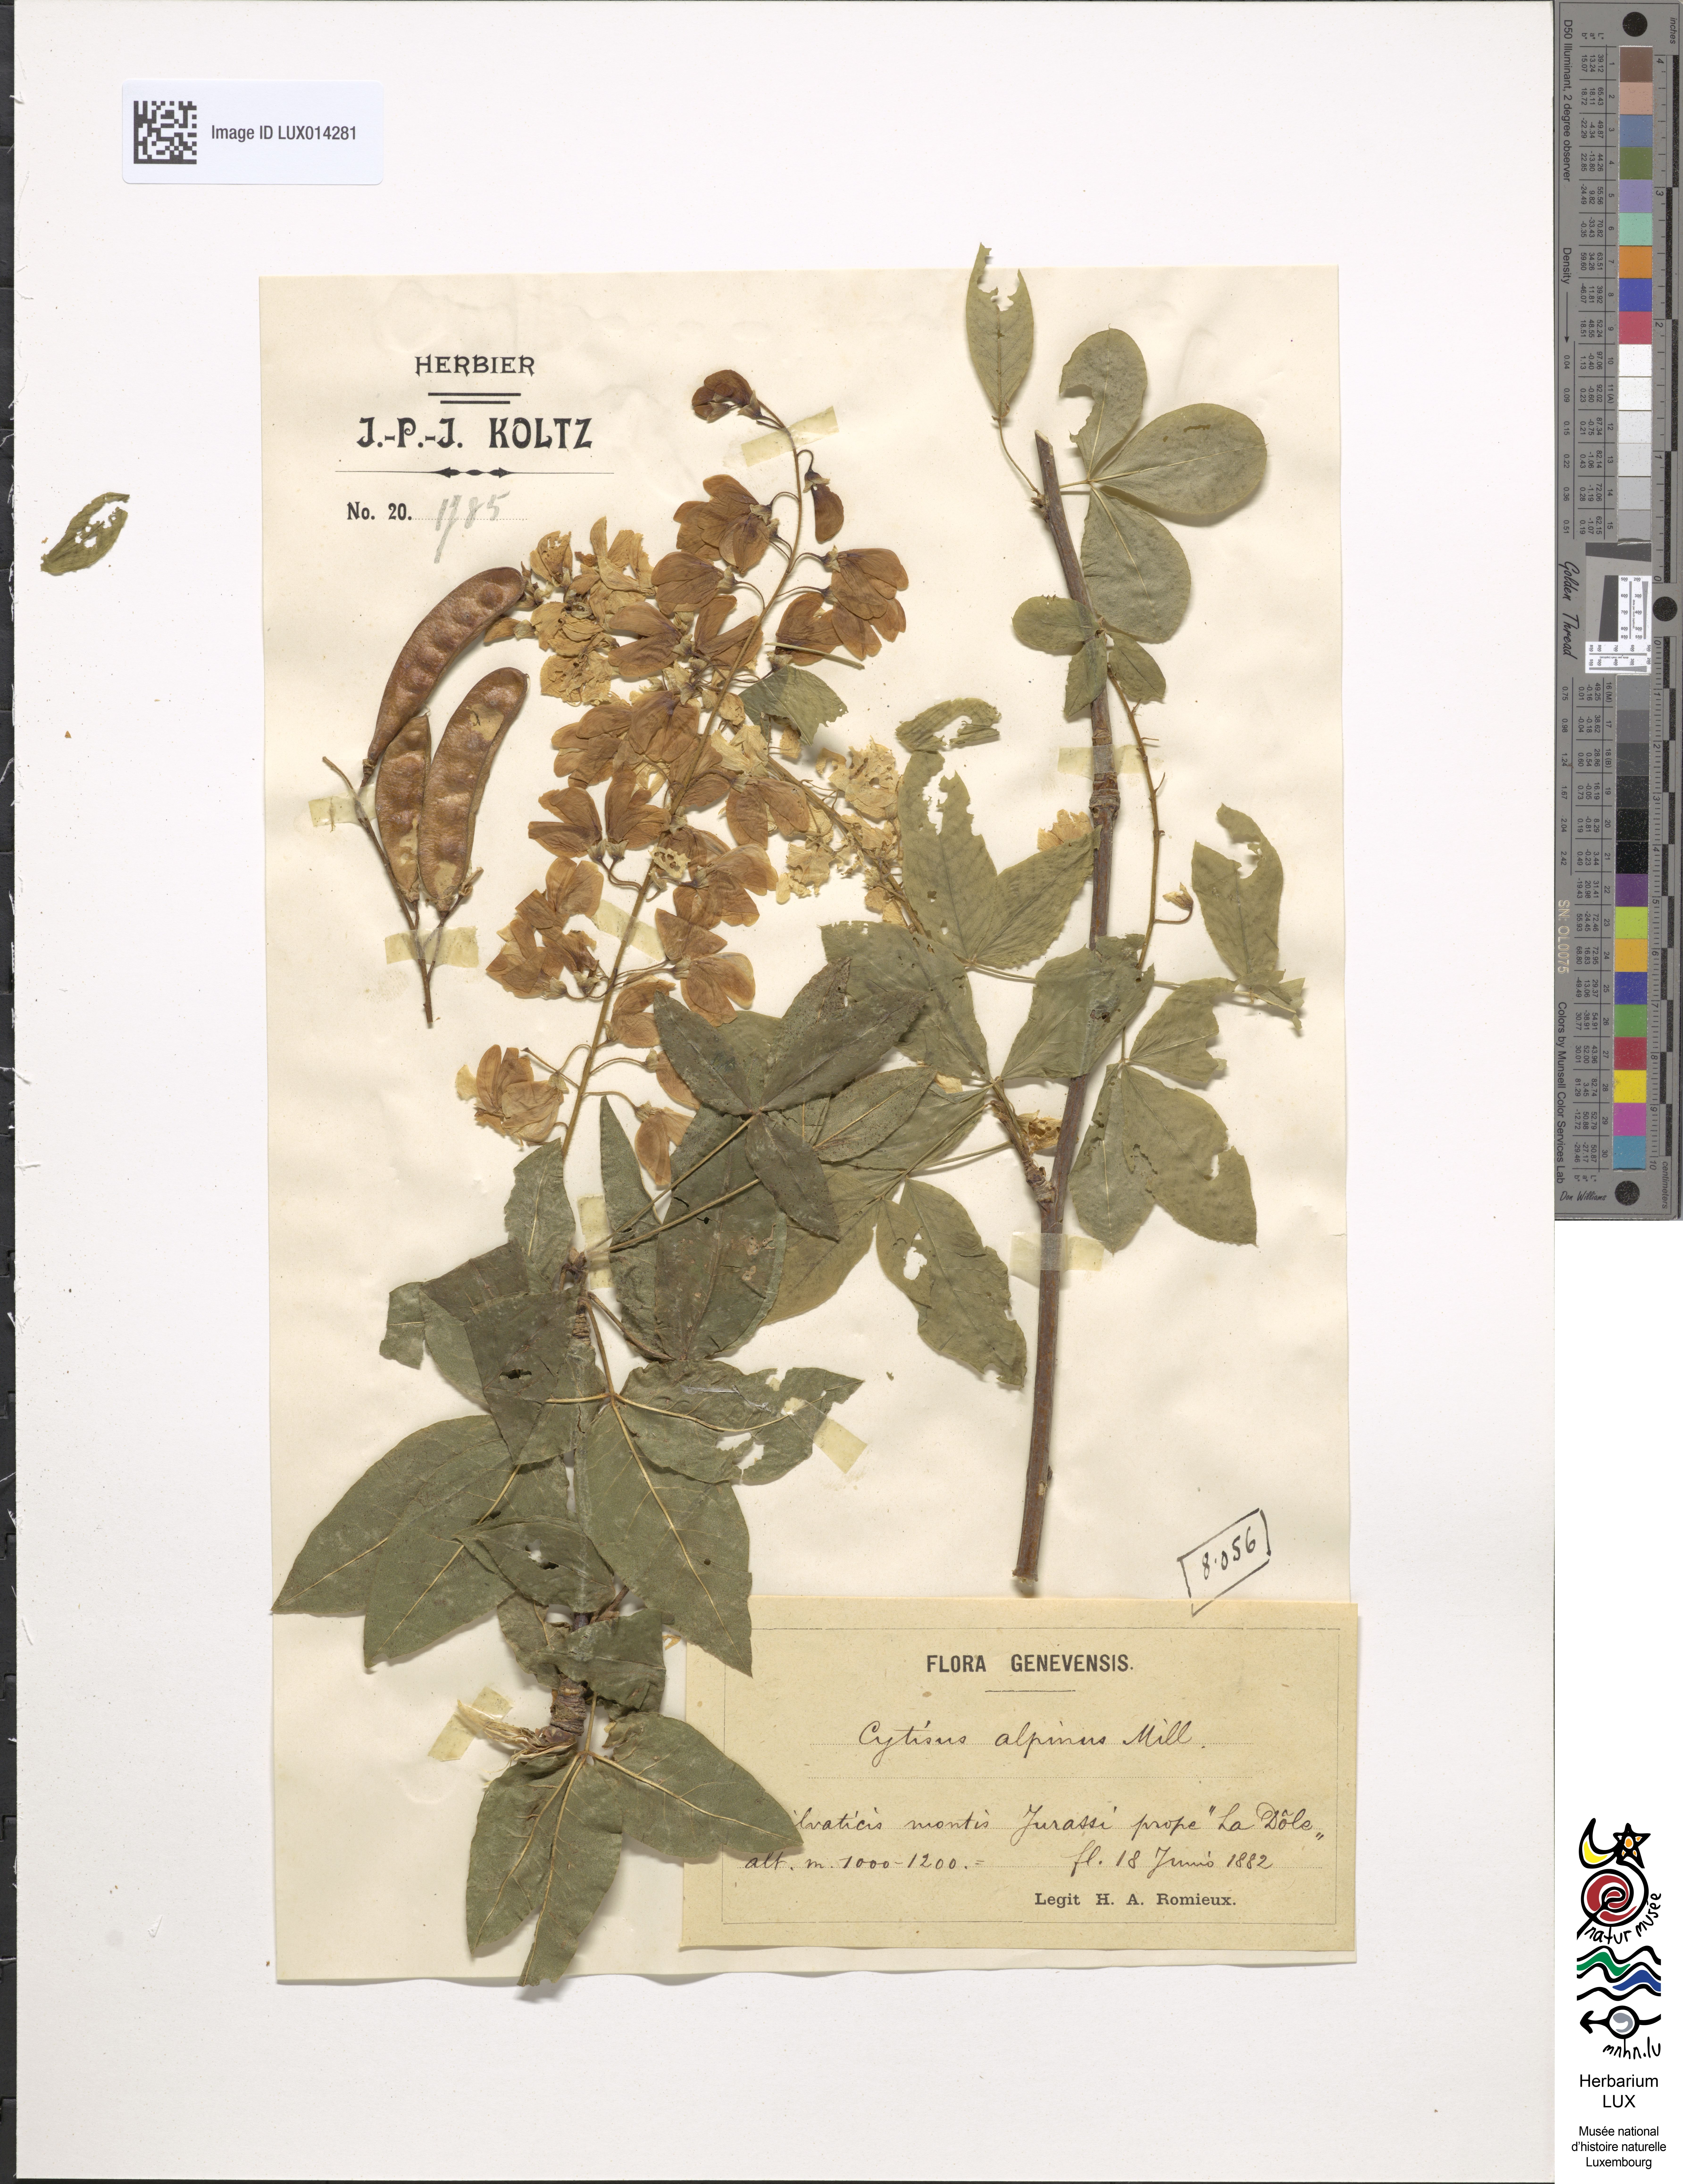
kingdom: Plantae
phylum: Tracheophyta
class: Magnoliopsida
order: Fabales
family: Fabaceae
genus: Laburnum
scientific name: Laburnum alpinum
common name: Scottish laburnum
